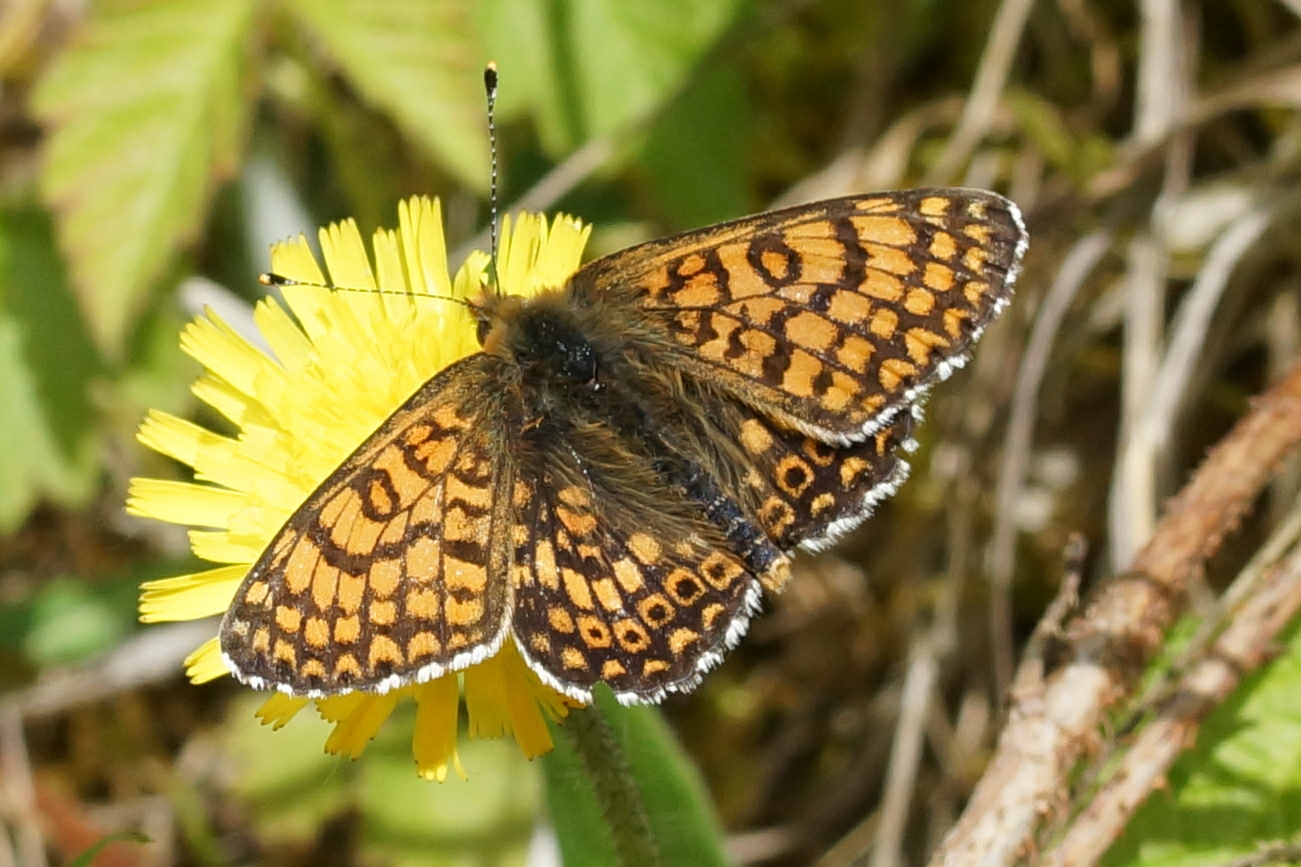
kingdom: Animalia
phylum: Arthropoda
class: Insecta
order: Lepidoptera
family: Nymphalidae
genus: Melitaea
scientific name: Melitaea cinxia
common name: Okkergul pletvinge
